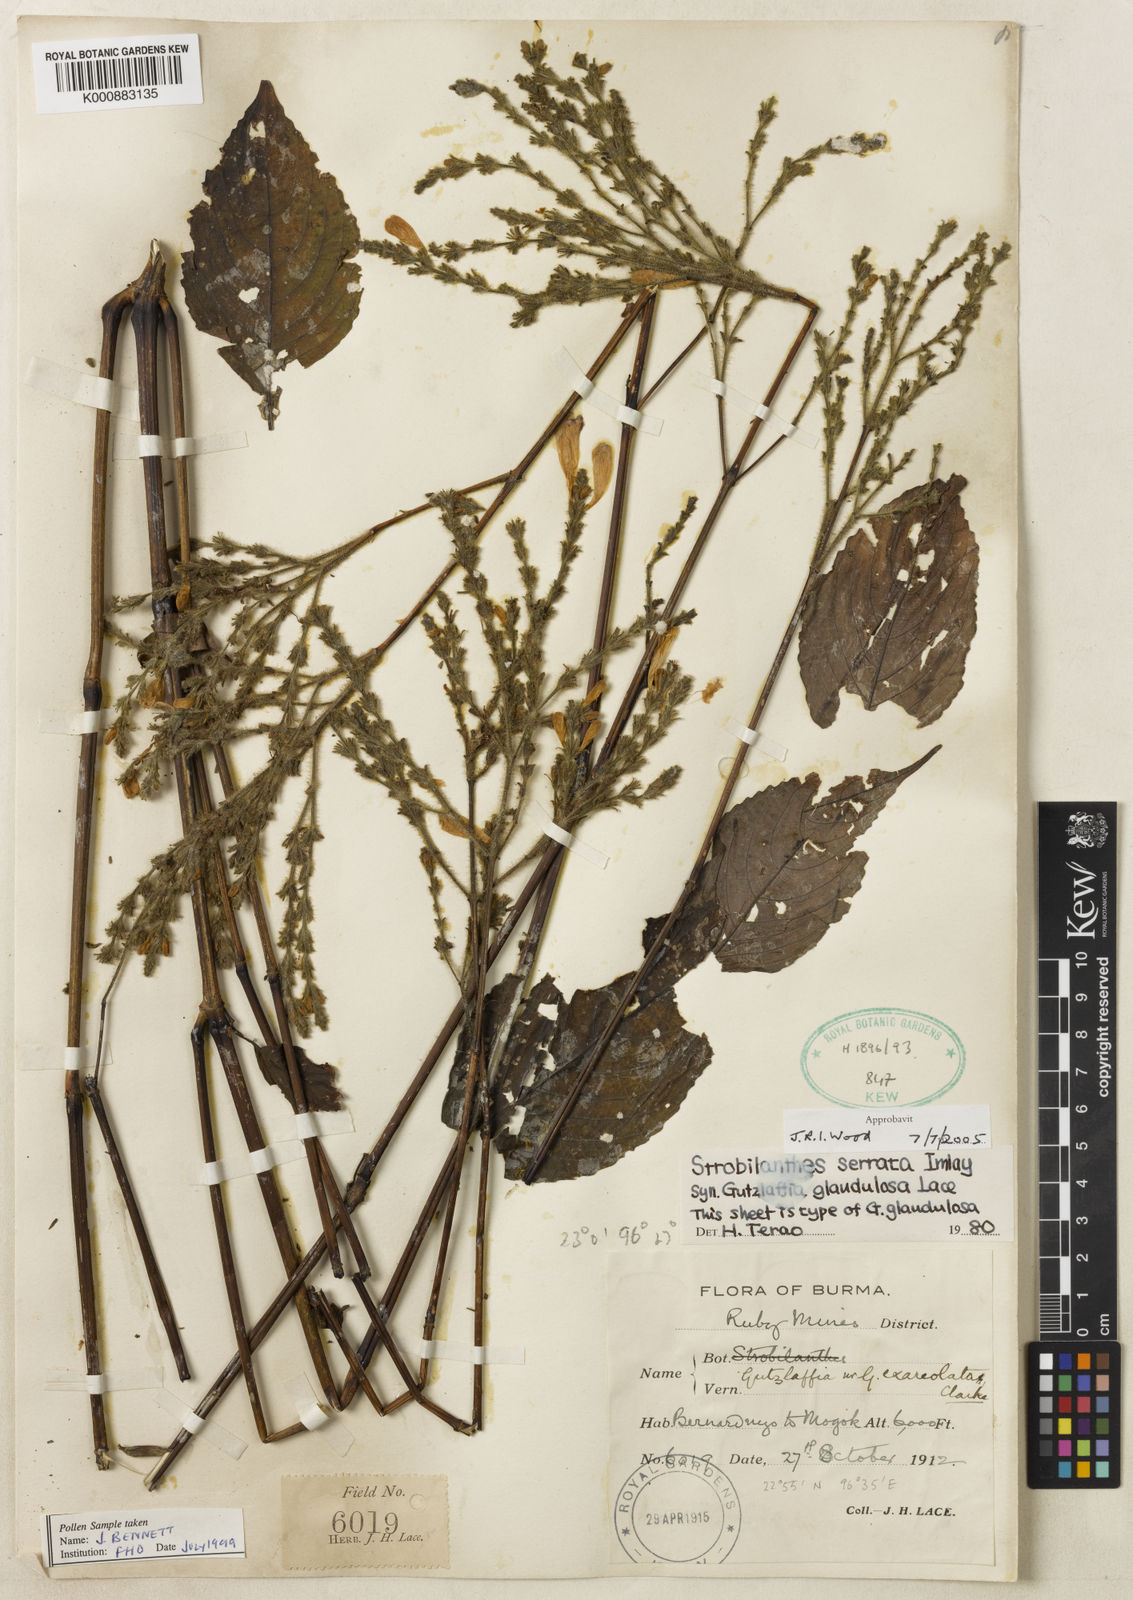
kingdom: Plantae
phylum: Tracheophyta
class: Magnoliopsida
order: Lamiales
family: Acanthaceae
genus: Strobilanthes
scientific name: Strobilanthes serrata
